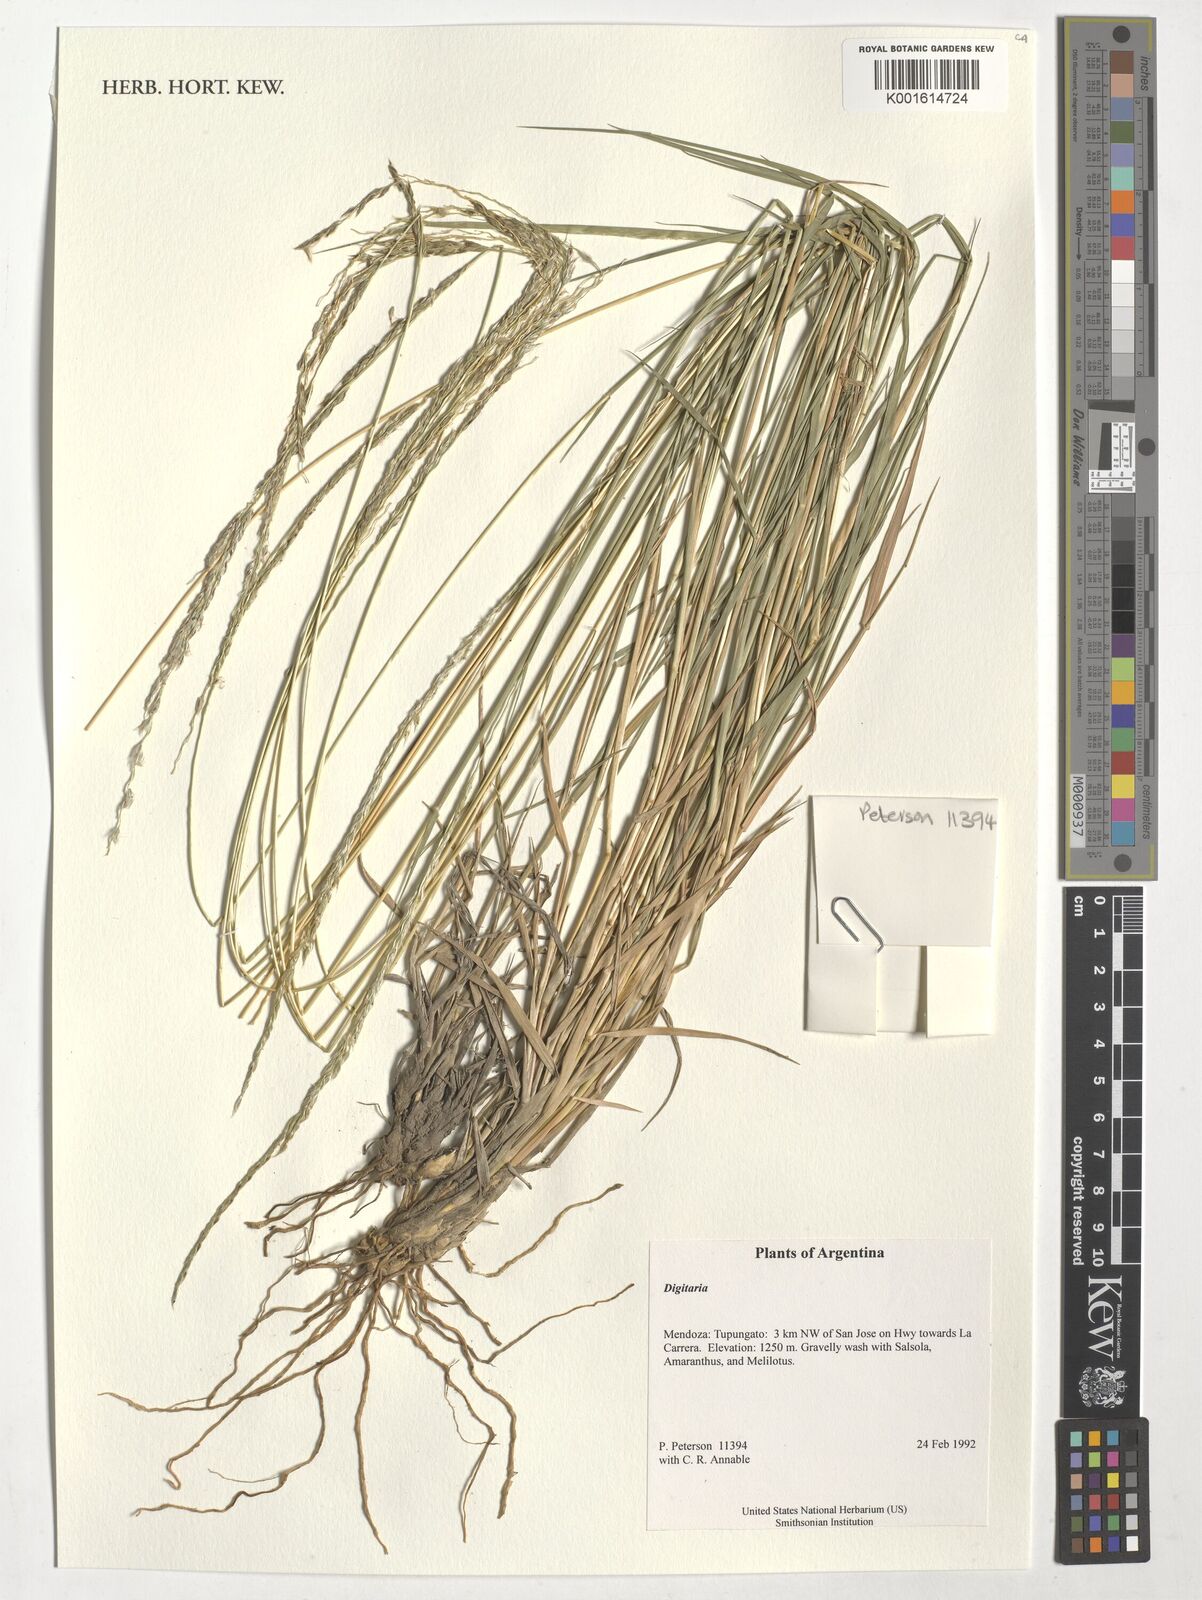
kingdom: Plantae
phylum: Tracheophyta
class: Liliopsida
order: Poales
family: Poaceae
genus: Digitaria
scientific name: Digitaria spec
